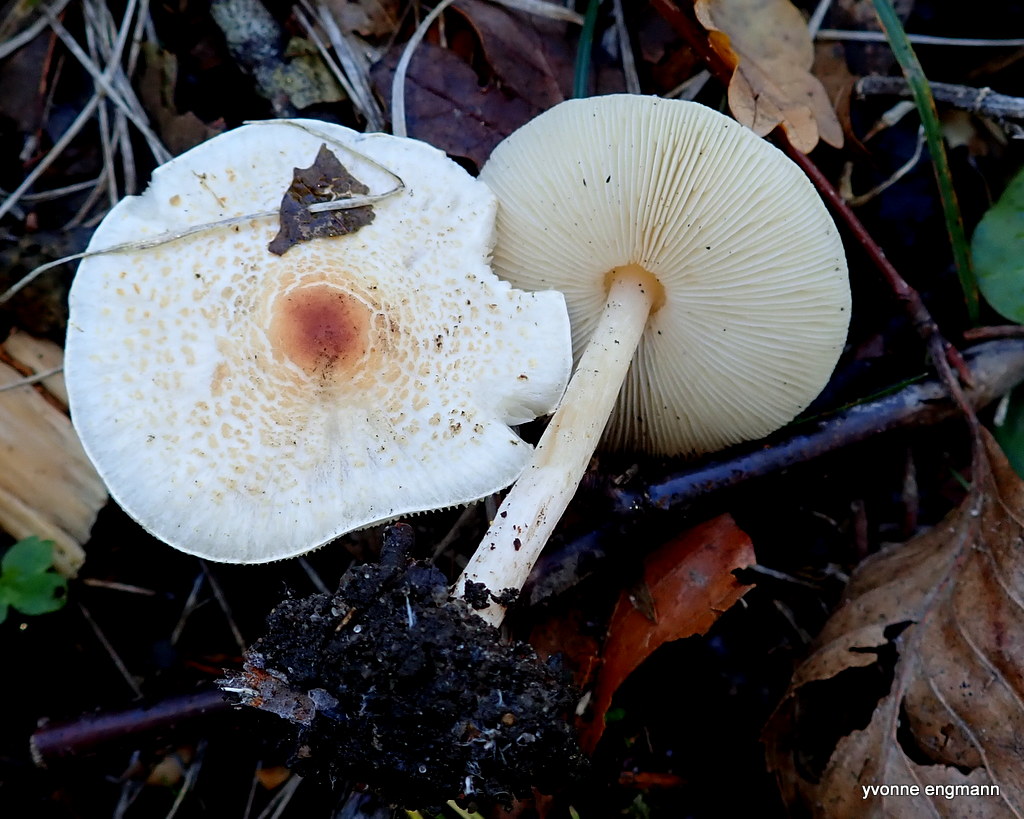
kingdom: Fungi
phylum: Basidiomycota
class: Agaricomycetes
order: Agaricales
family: Agaricaceae
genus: Lepiota
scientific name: Lepiota cristata
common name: stinkende parasolhat
